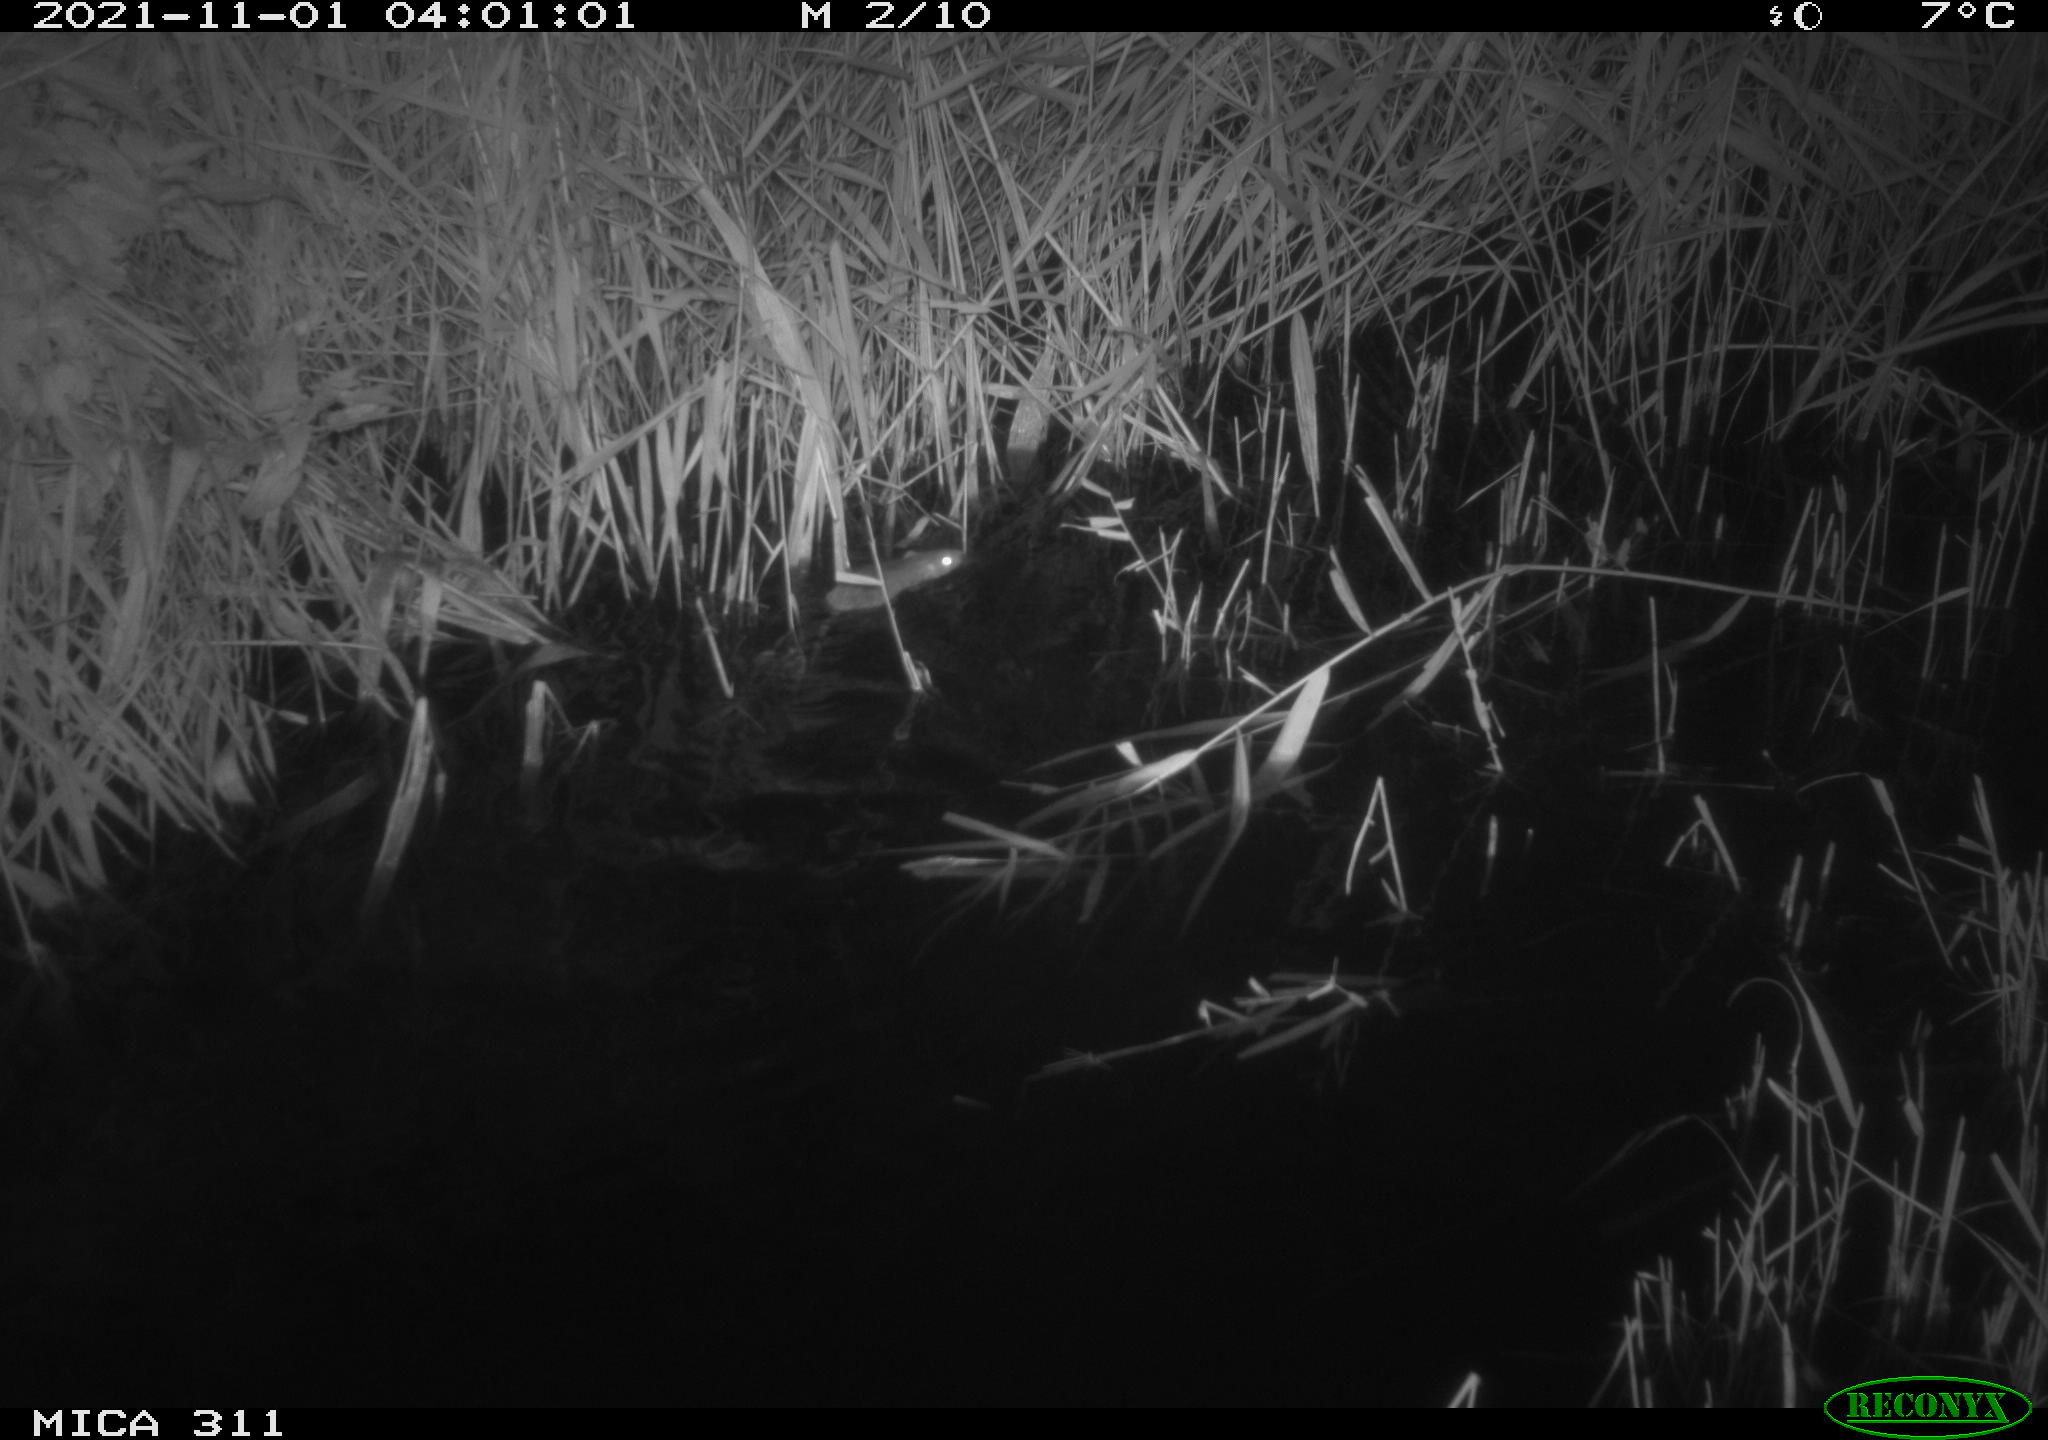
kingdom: Animalia
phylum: Chordata
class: Mammalia
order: Rodentia
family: Muridae
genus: Rattus
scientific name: Rattus norvegicus
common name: Brown rat
